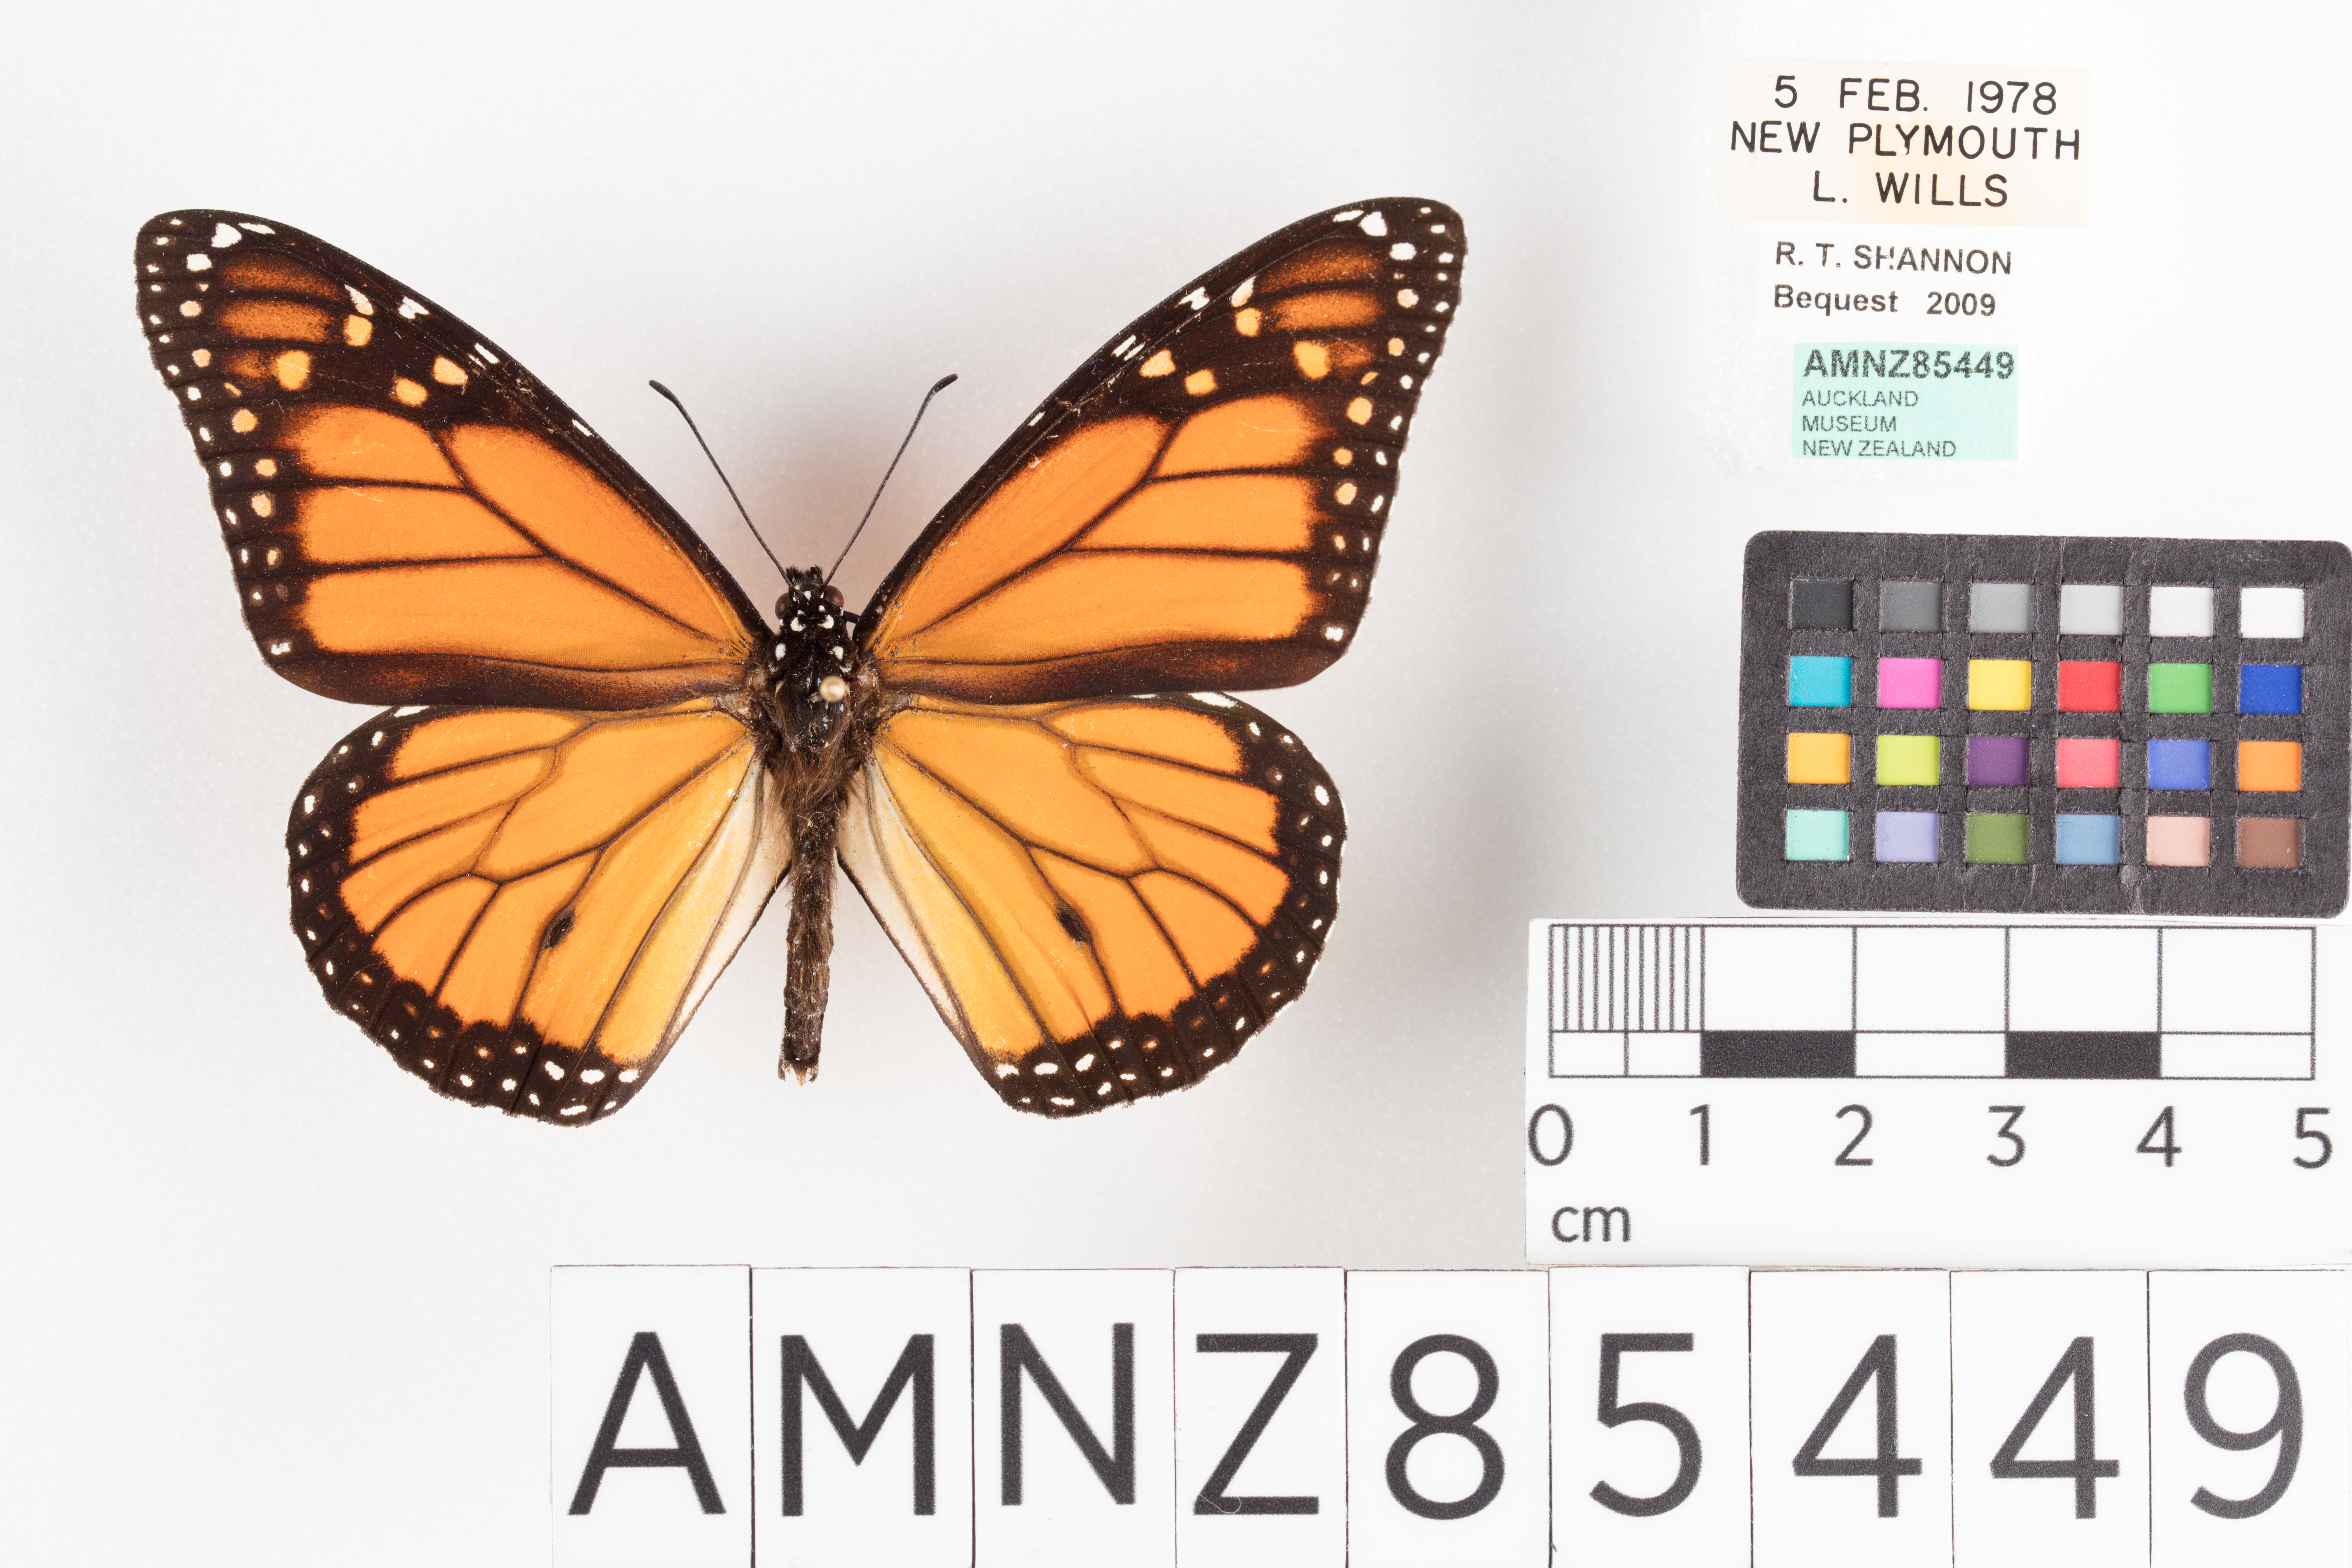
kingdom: Animalia
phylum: Arthropoda
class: Insecta
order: Lepidoptera
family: Nymphalidae
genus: Danaus
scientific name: Danaus plexippus
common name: Monarch
